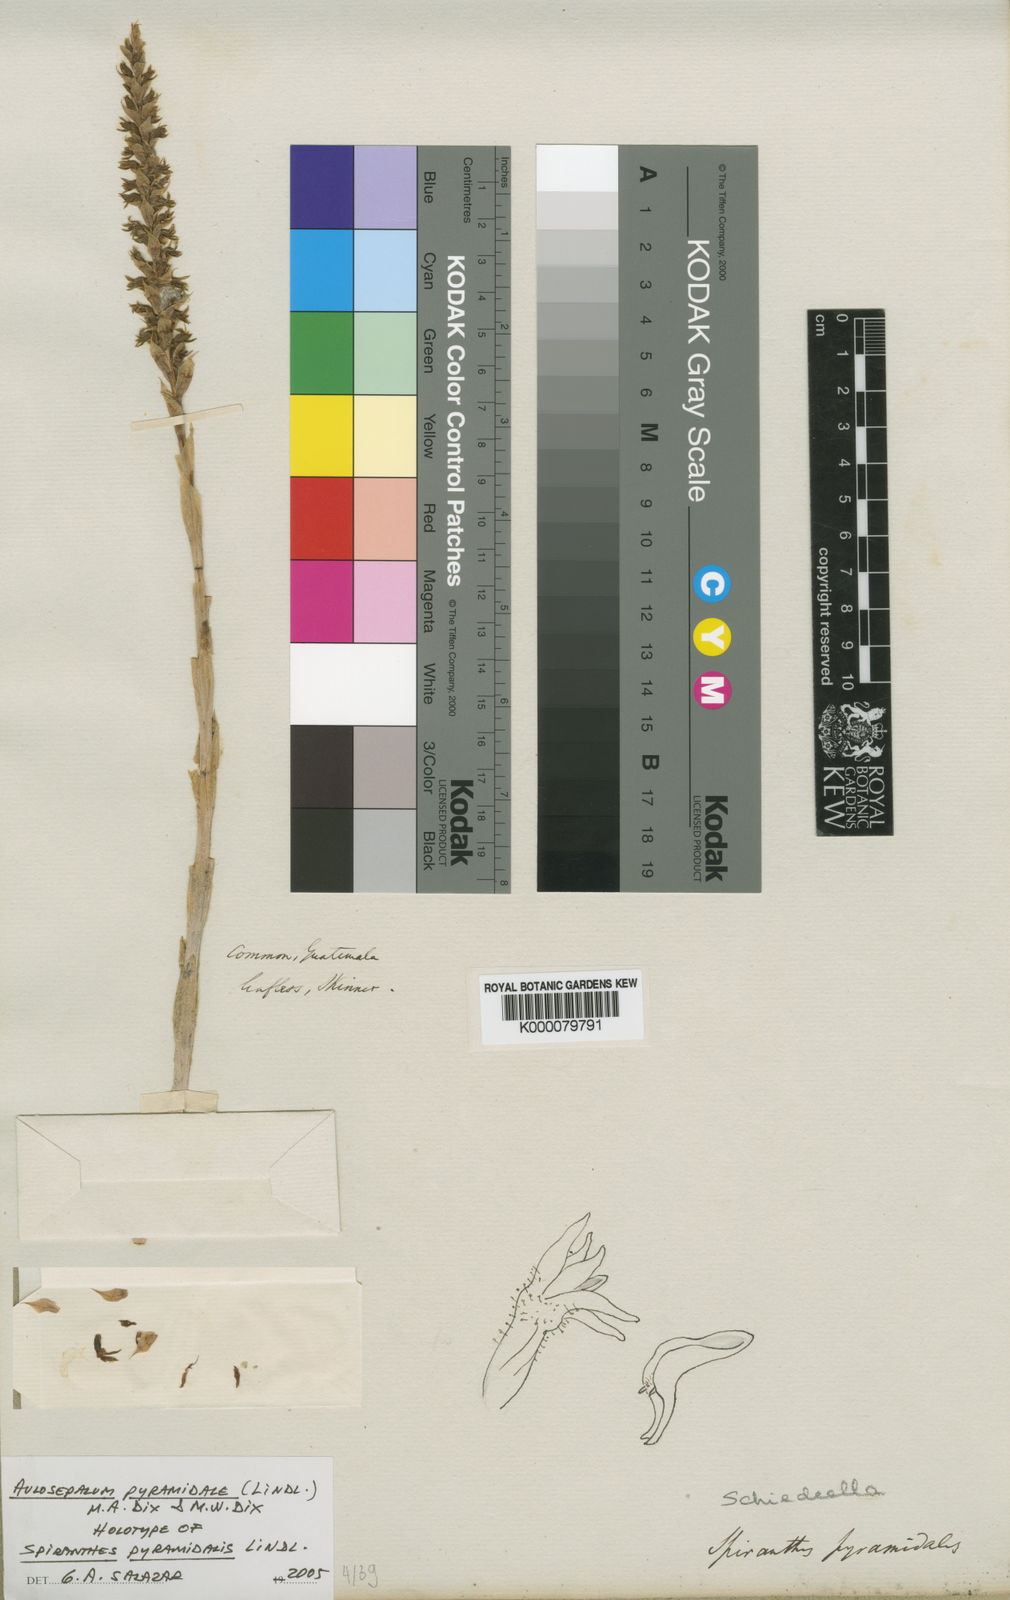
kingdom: Plantae
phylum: Tracheophyta
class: Liliopsida
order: Asparagales
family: Orchidaceae
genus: Aulosepalum
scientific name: Aulosepalum pyramidale
